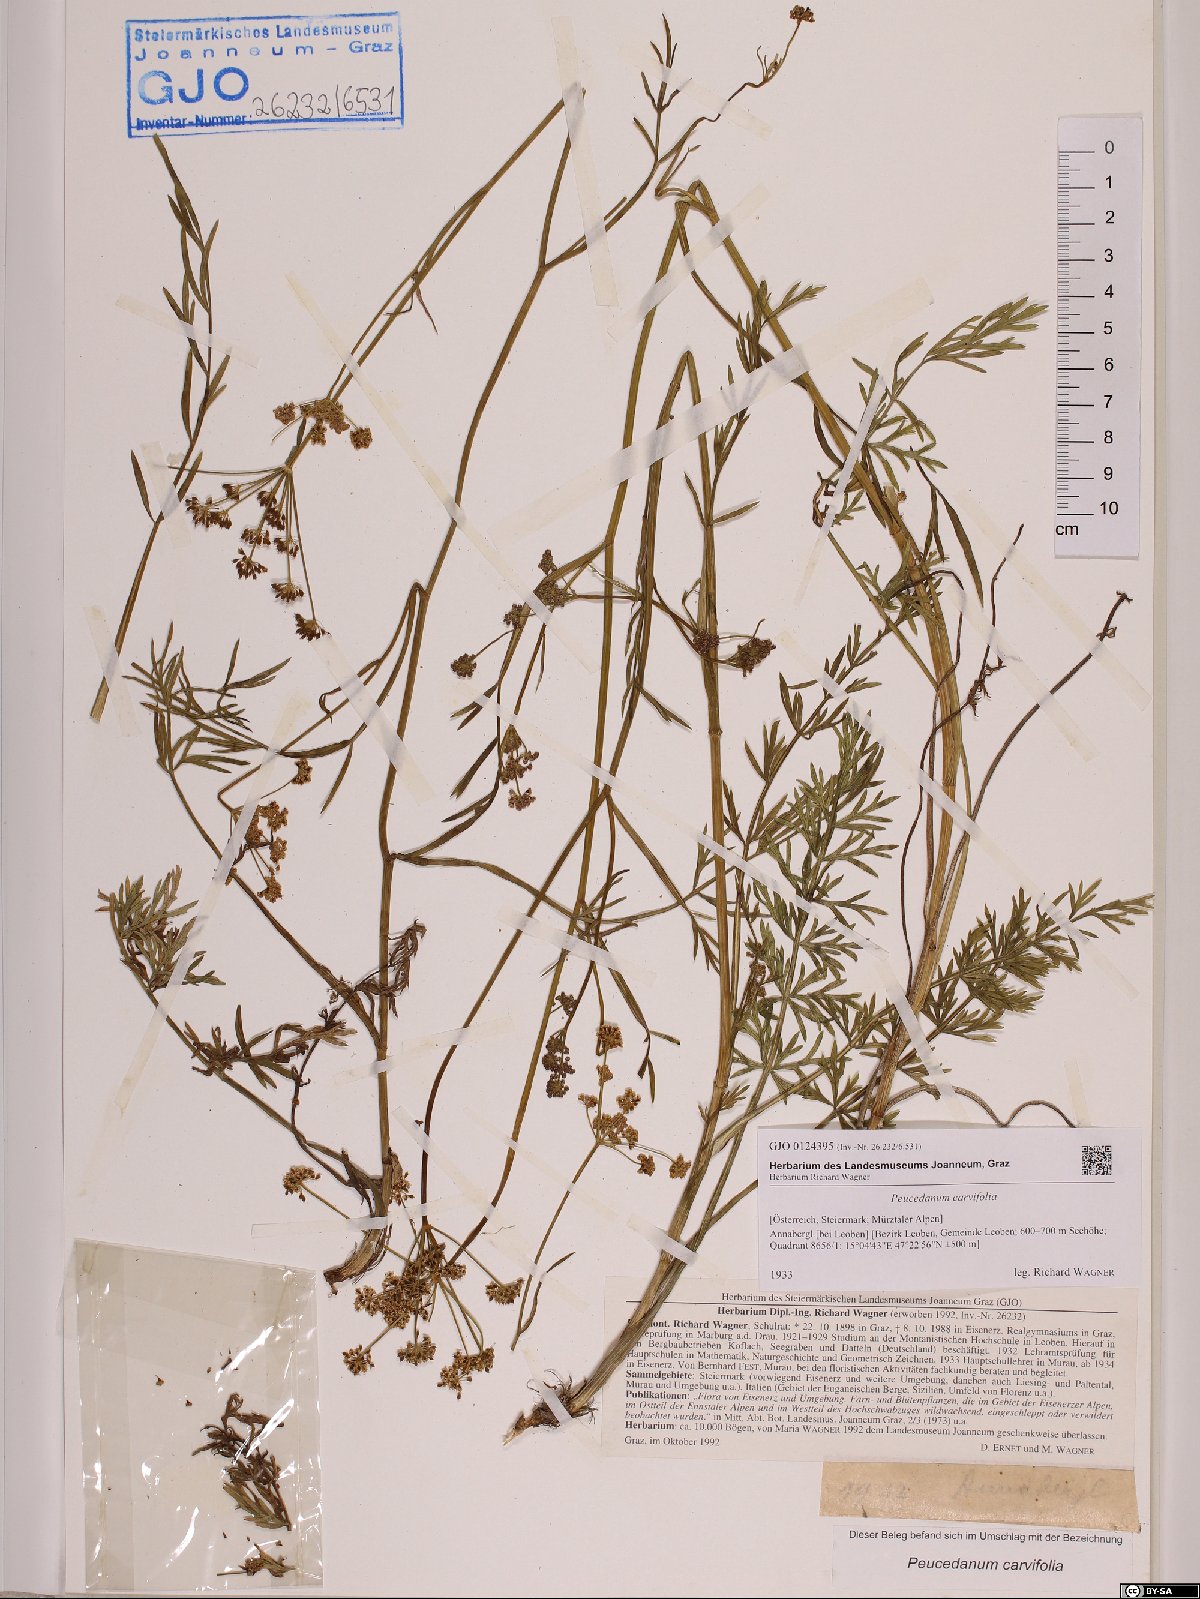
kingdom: Plantae
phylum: Tracheophyta
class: Magnoliopsida
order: Apiales
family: Apiaceae
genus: Dichoropetalum
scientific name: Dichoropetalum carvifolia
